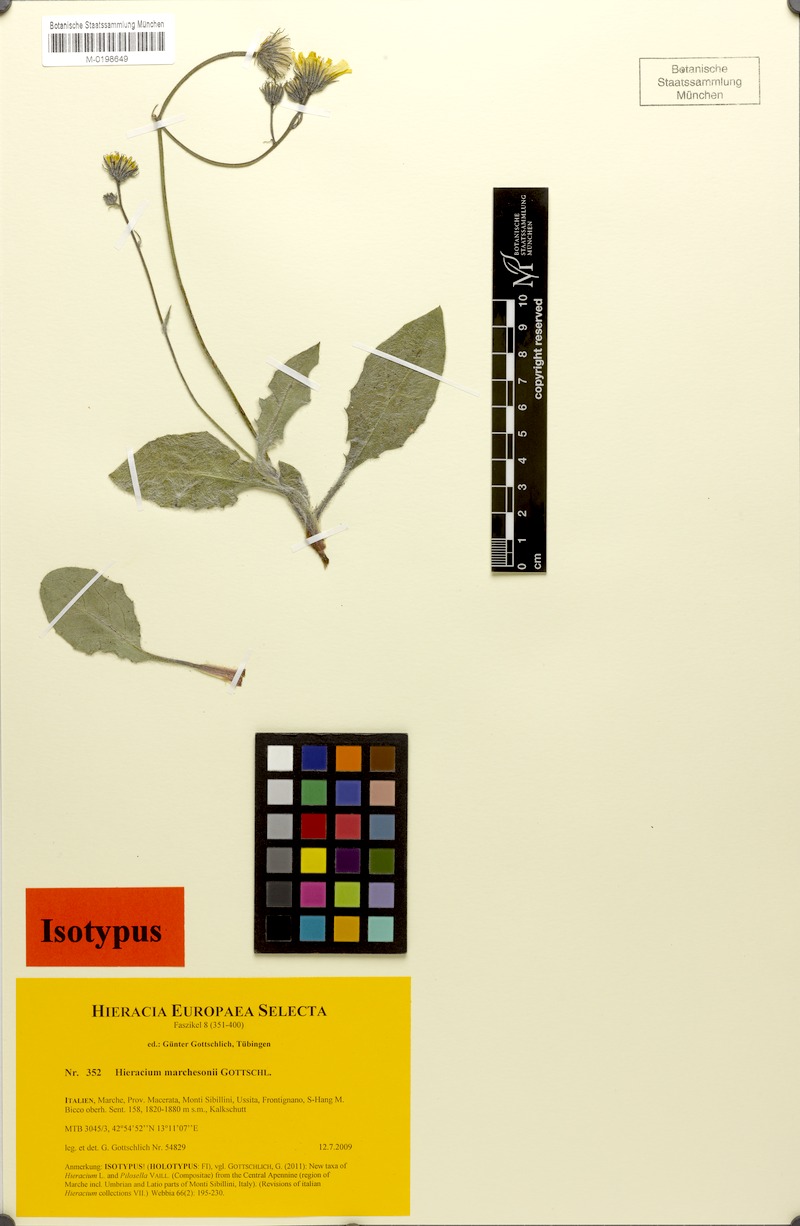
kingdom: Plantae
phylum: Tracheophyta
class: Magnoliopsida
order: Asterales
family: Asteraceae
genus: Hieracium
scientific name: Hieracium marchesonii
